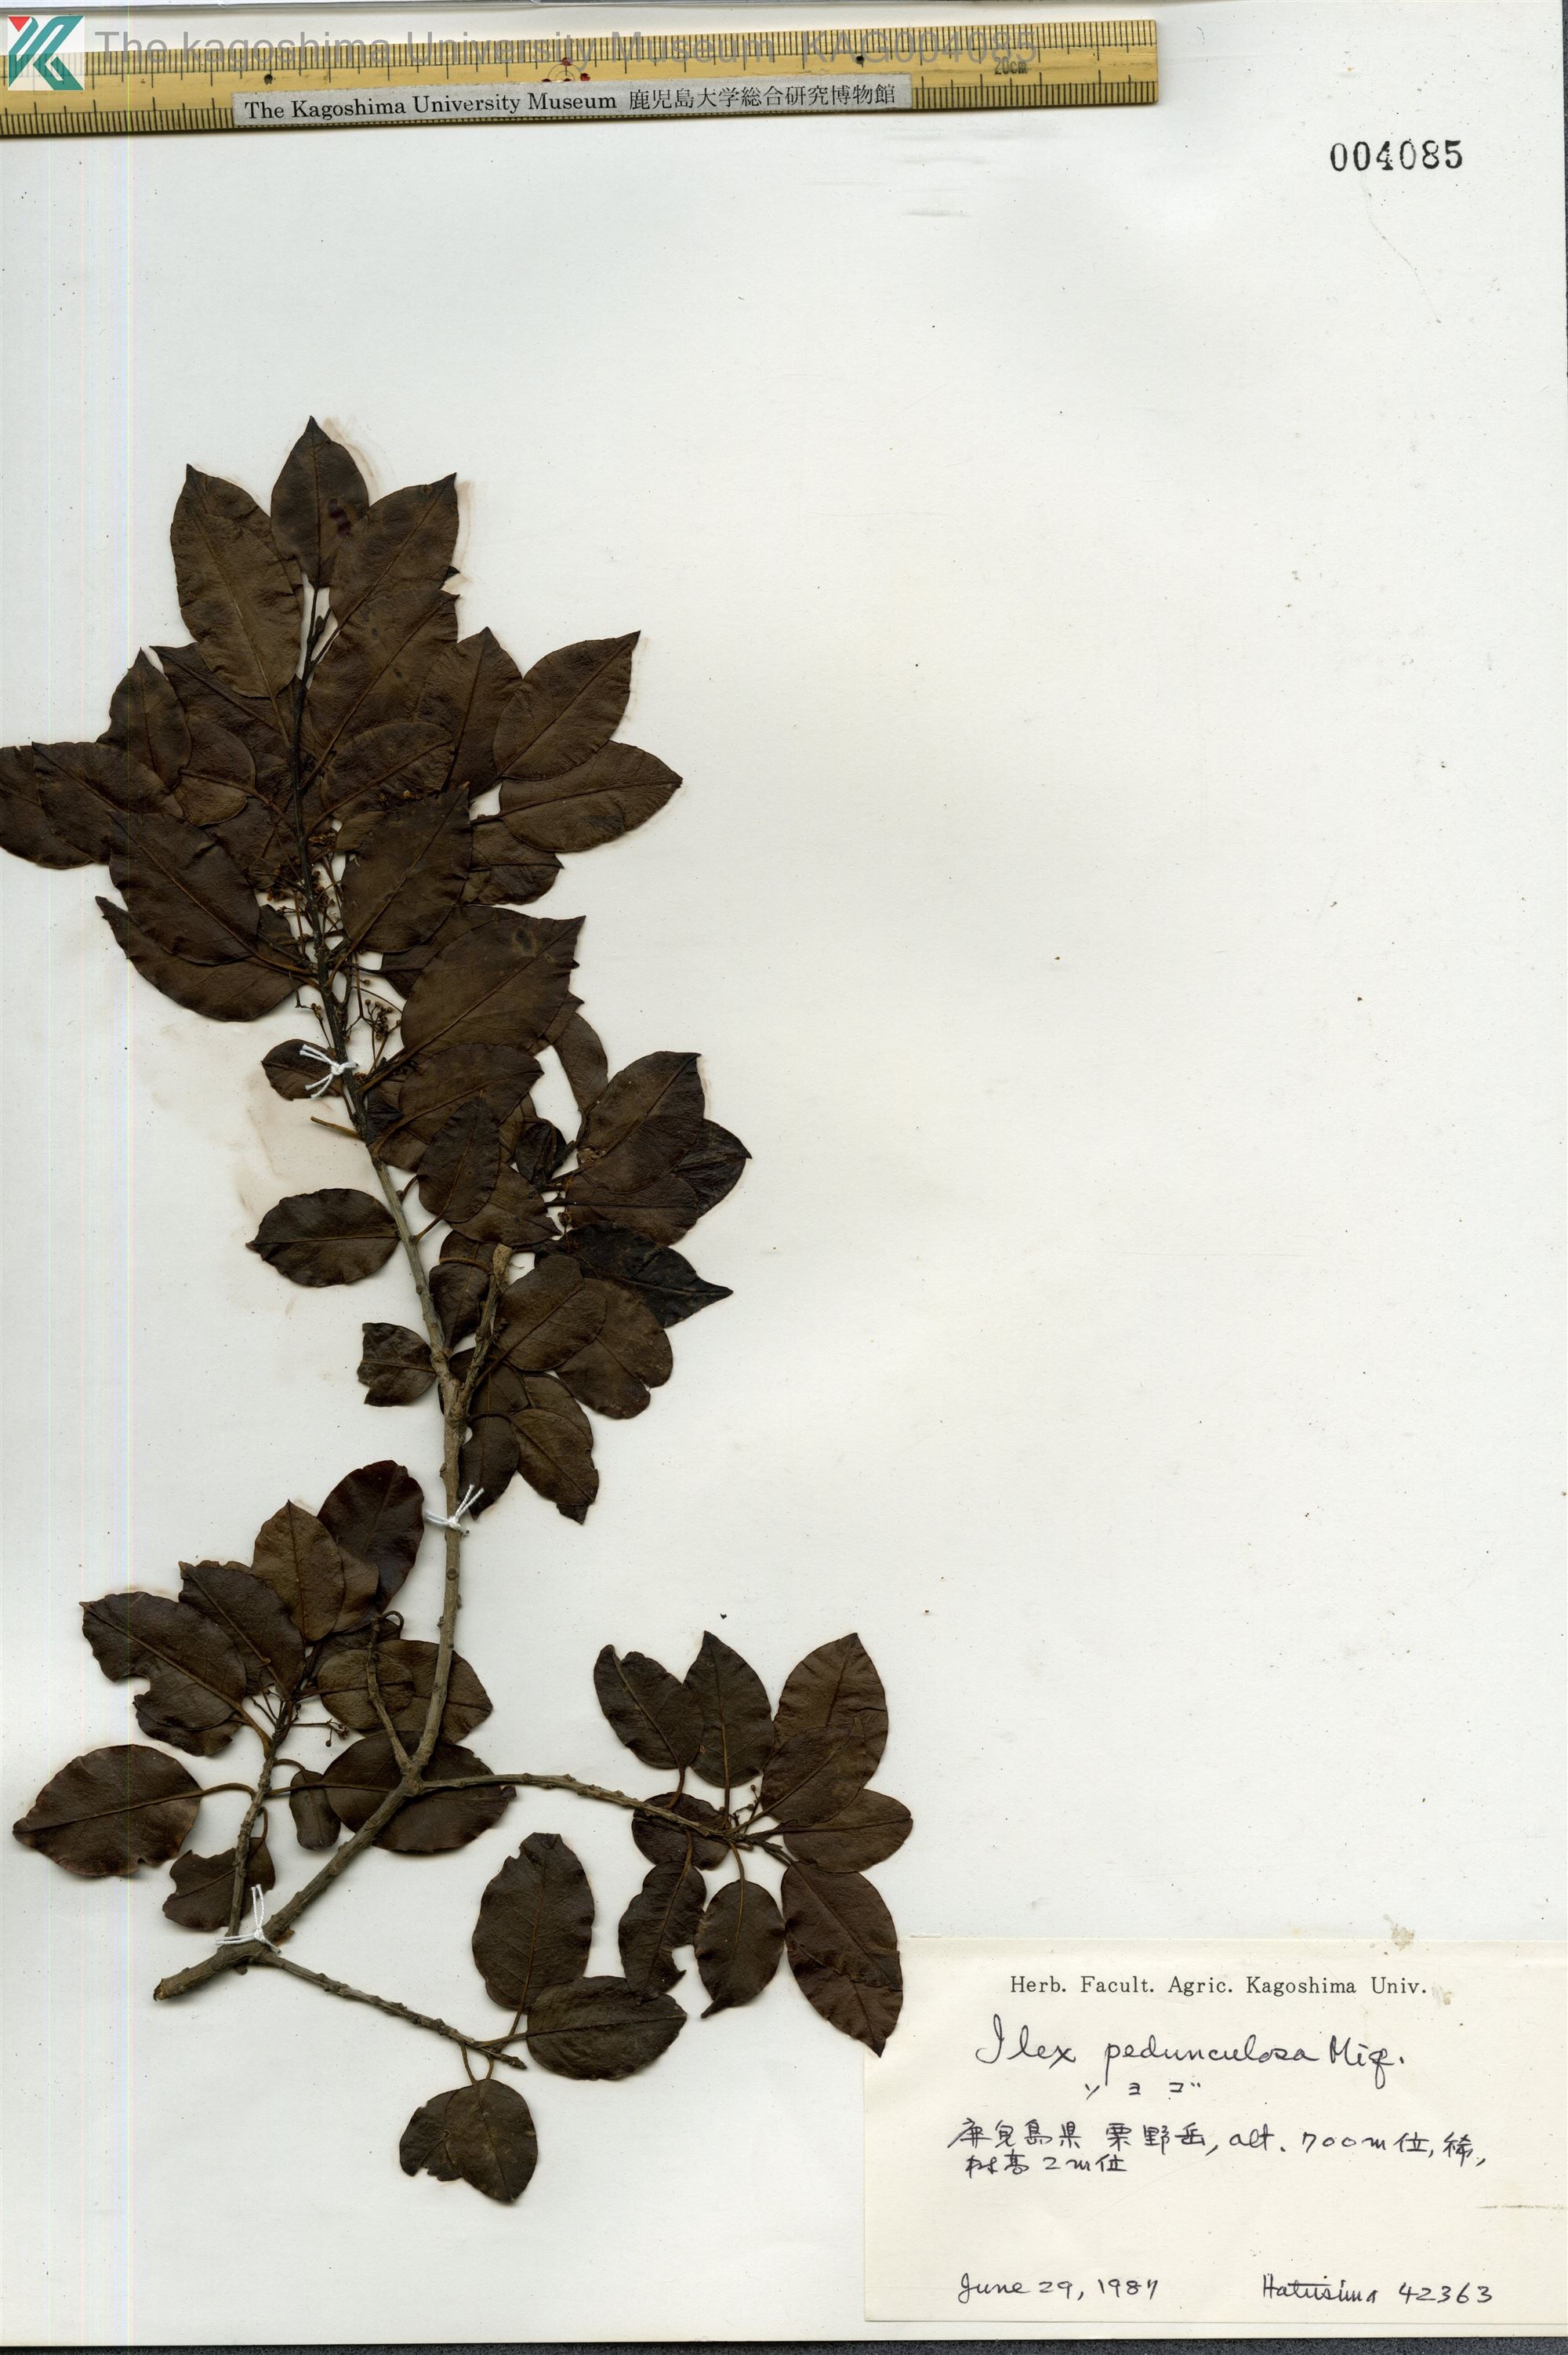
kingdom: Plantae
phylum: Tracheophyta
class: Magnoliopsida
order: Aquifoliales
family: Aquifoliaceae
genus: Ilex
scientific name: Ilex pedunculosa
